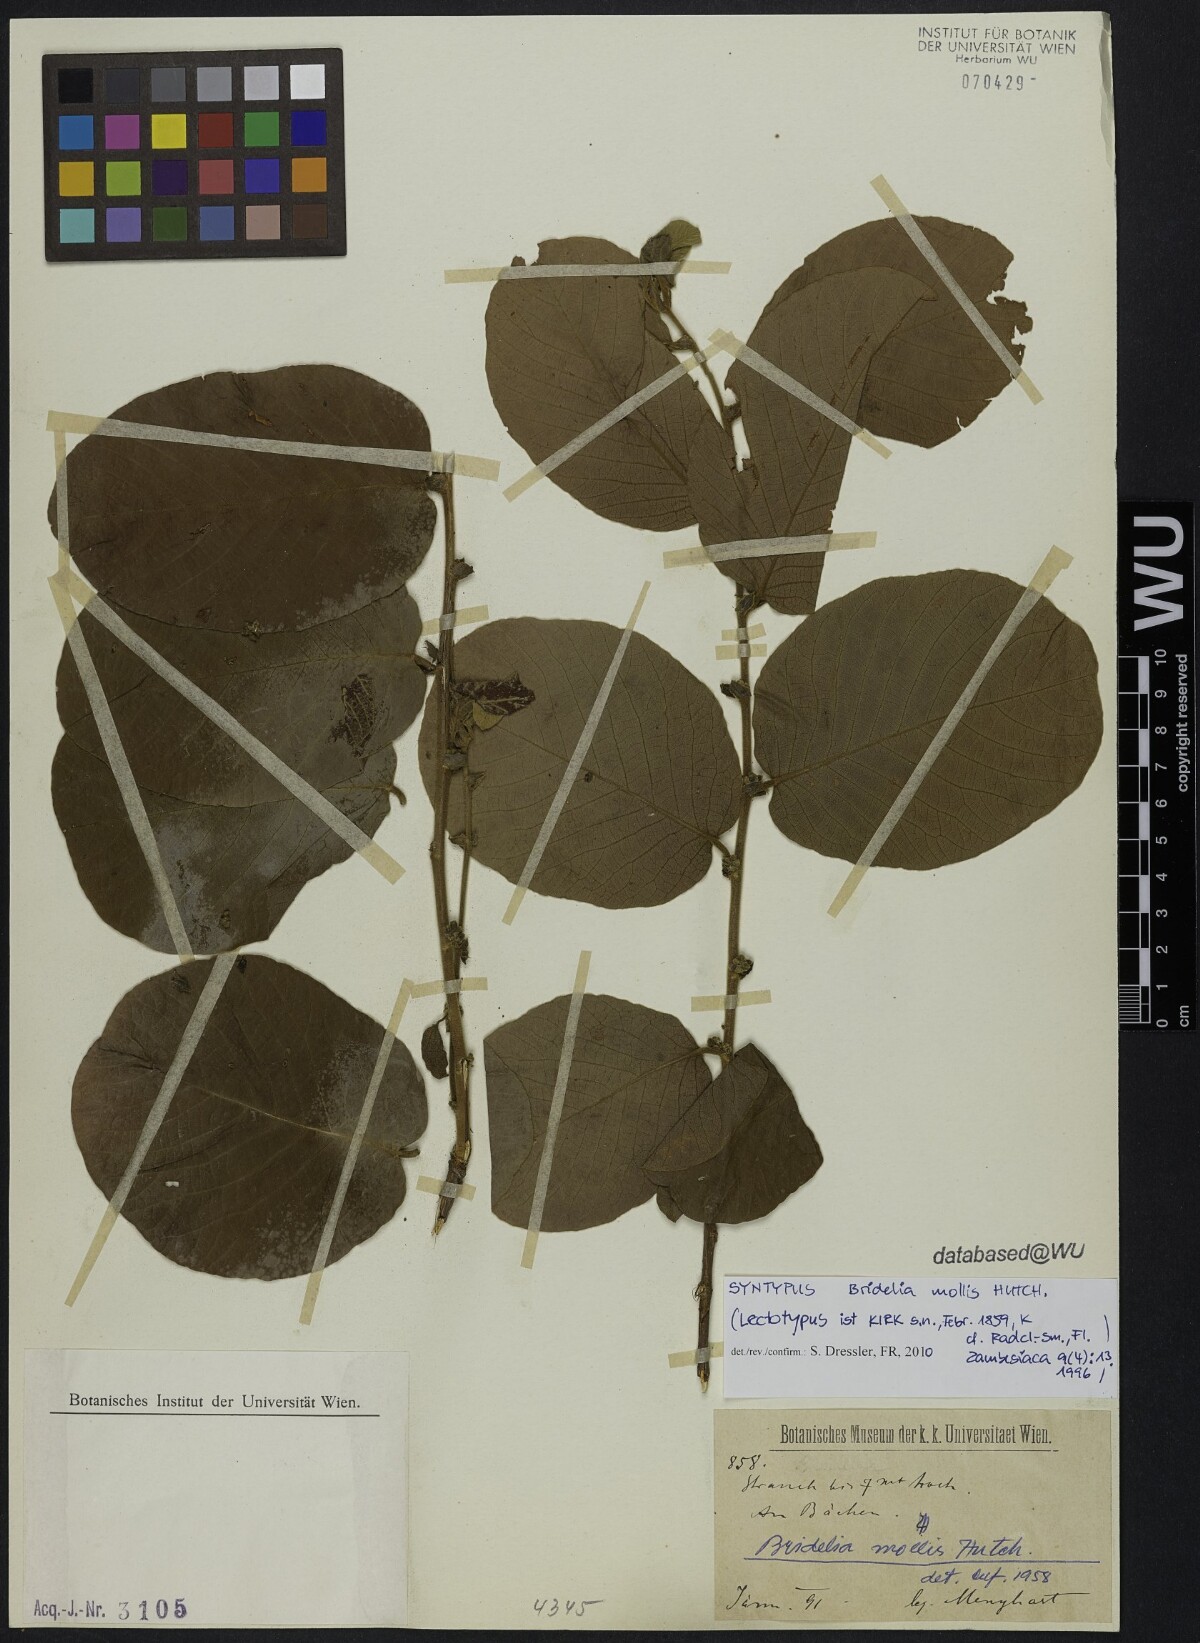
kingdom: Plantae
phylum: Tracheophyta
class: Magnoliopsida
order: Malpighiales
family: Phyllanthaceae
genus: Bridelia
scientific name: Bridelia mollis
